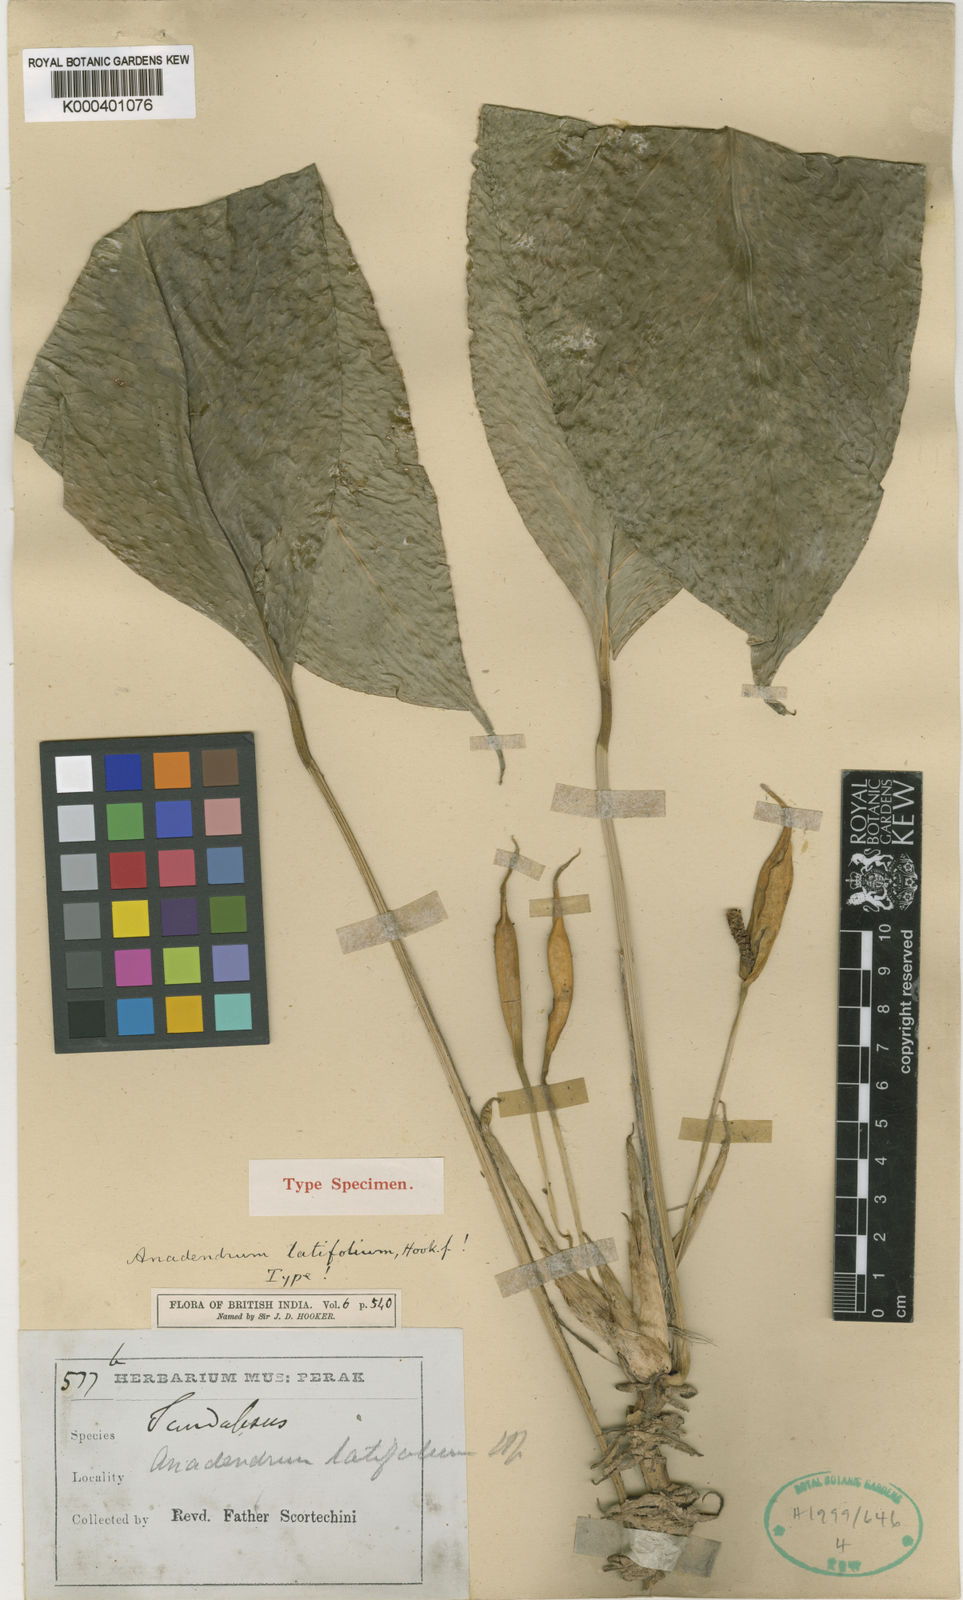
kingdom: Plantae
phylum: Tracheophyta
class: Liliopsida
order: Alismatales
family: Araceae
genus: Anadendrum
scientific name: Anadendrum latifolium
